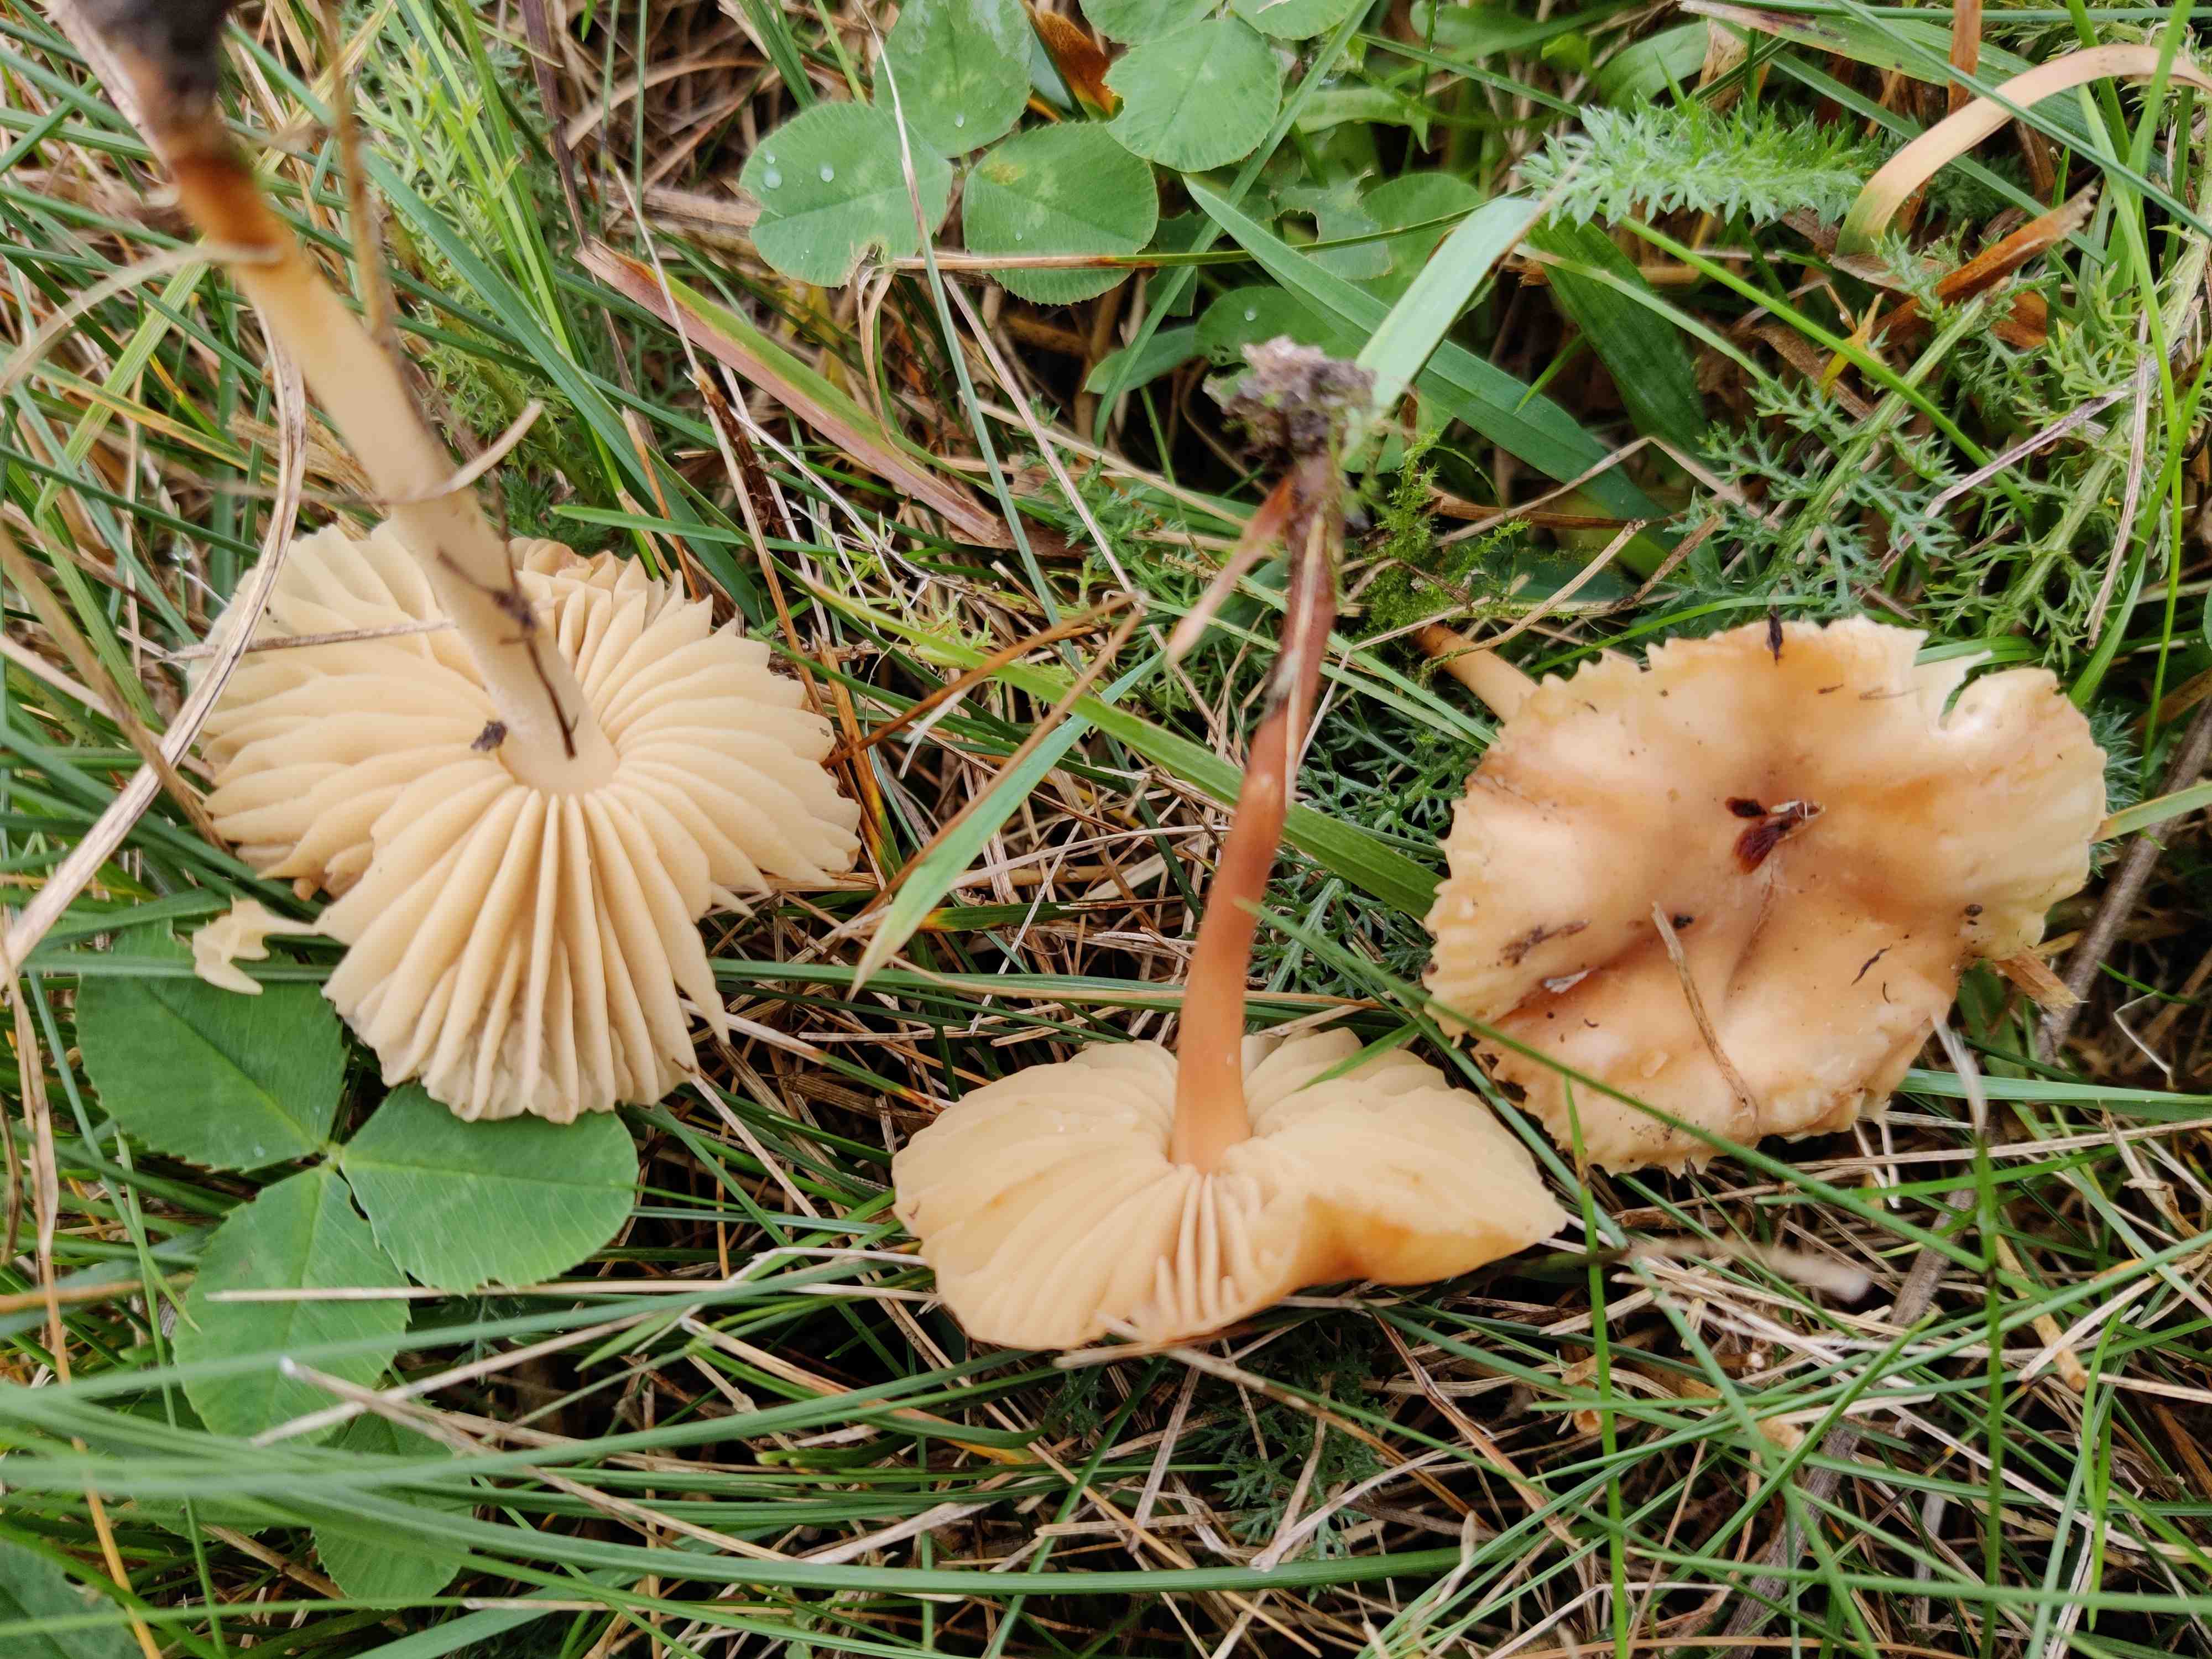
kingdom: Fungi
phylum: Basidiomycota
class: Agaricomycetes
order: Agaricales
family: Marasmiaceae
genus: Marasmius
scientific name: Marasmius oreades
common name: elledans-bruskhat
